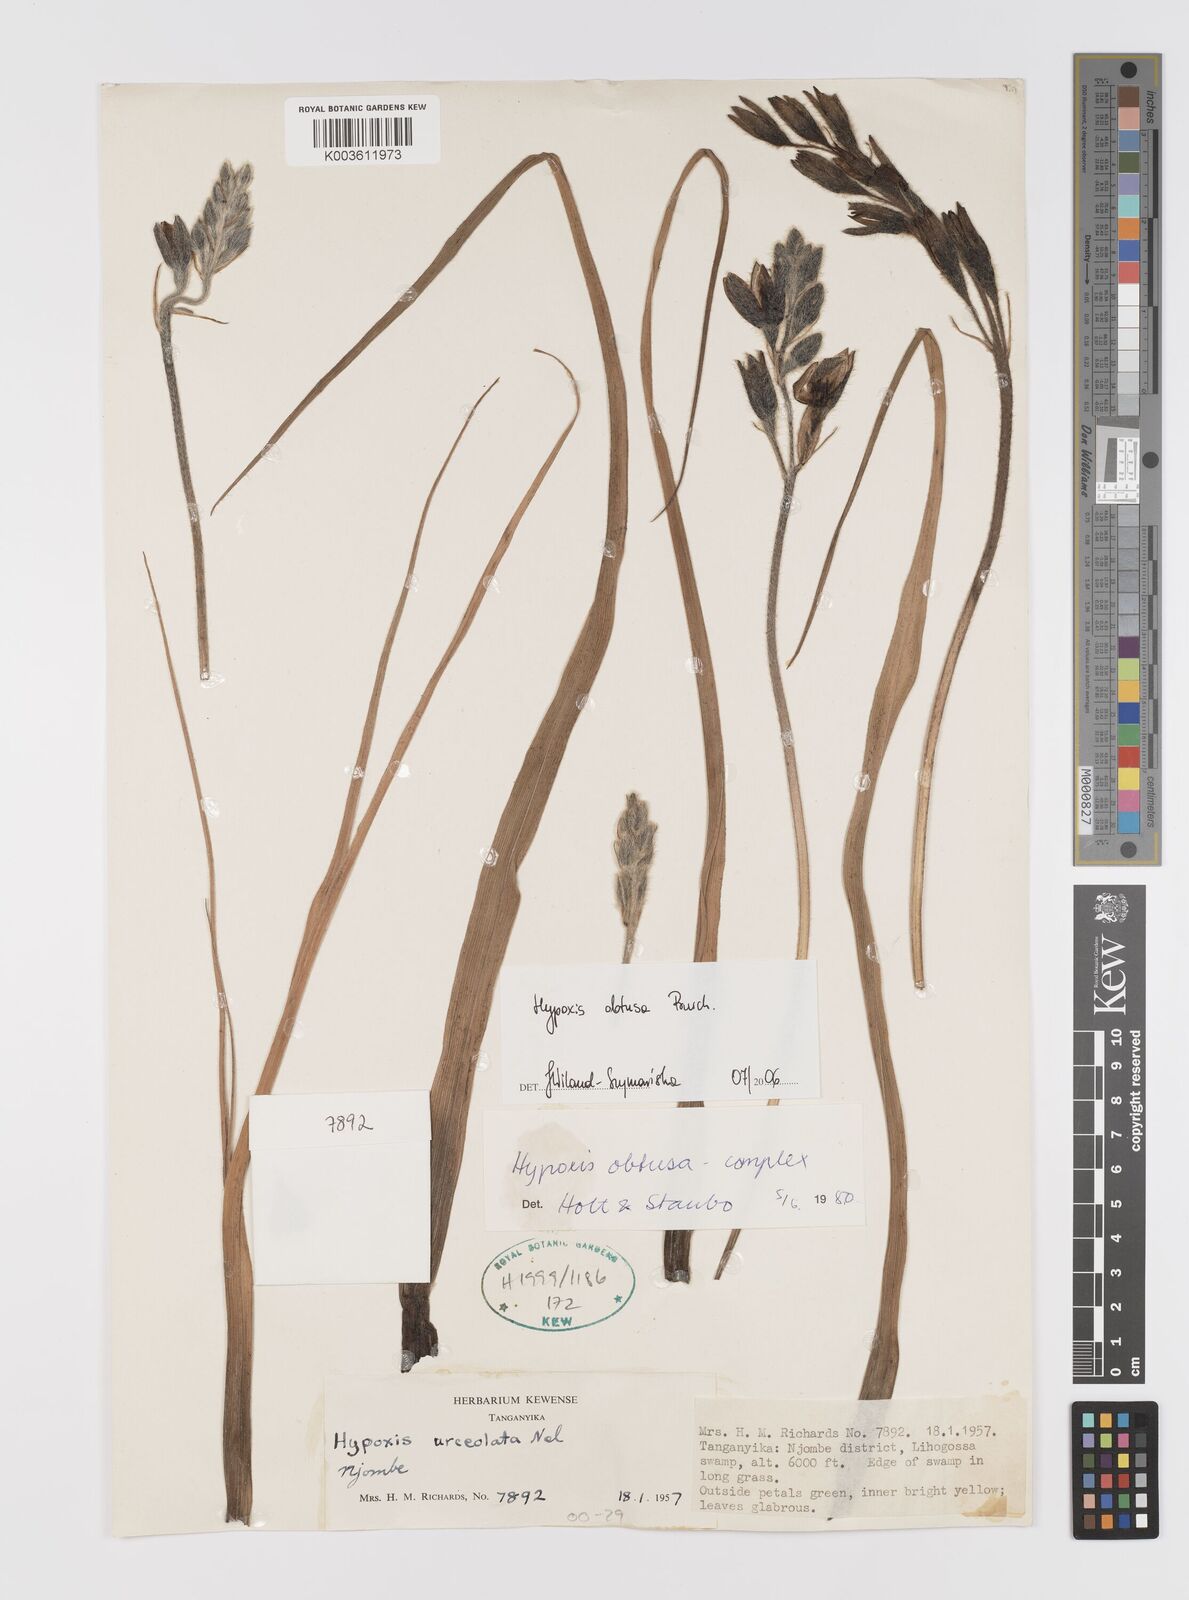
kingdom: Plantae
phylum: Tracheophyta
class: Liliopsida
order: Asparagales
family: Hypoxidaceae
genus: Hypoxis
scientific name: Hypoxis obtusa
